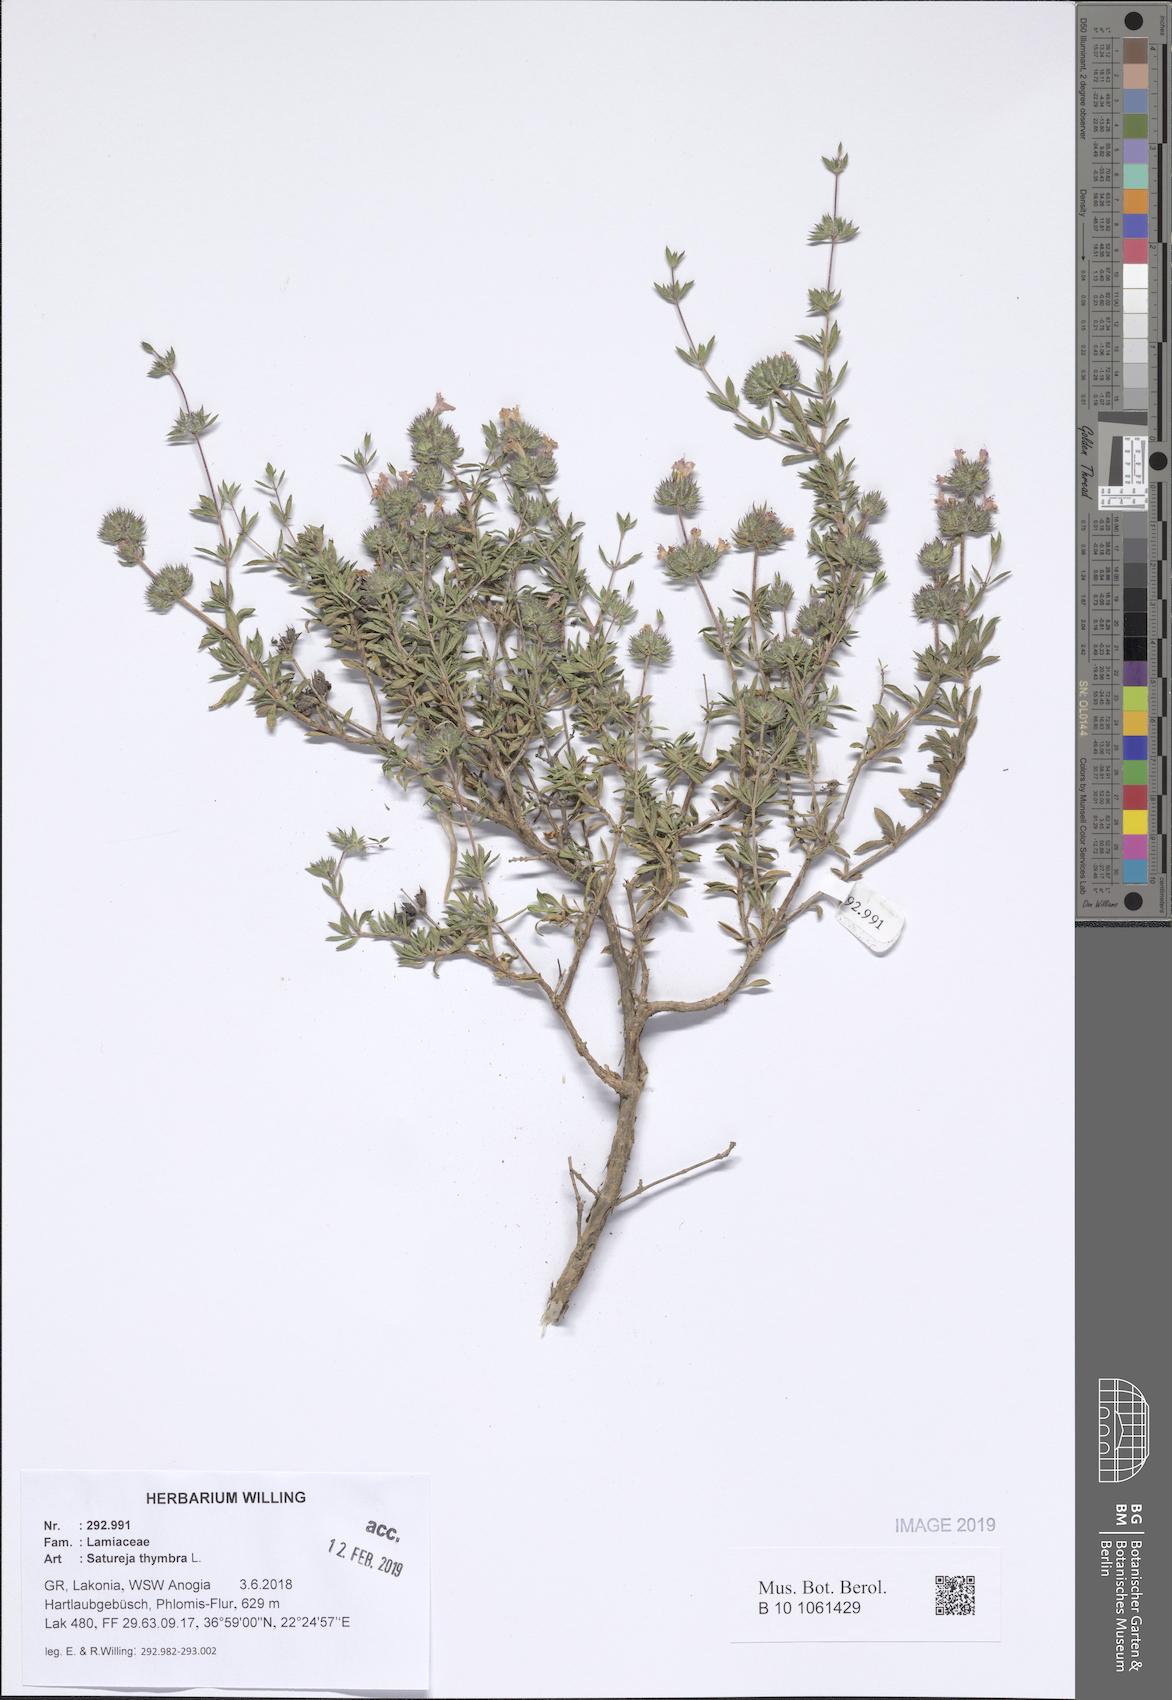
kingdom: Plantae
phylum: Tracheophyta
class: Magnoliopsida
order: Lamiales
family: Lamiaceae
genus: Satureja
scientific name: Satureja thymbra
